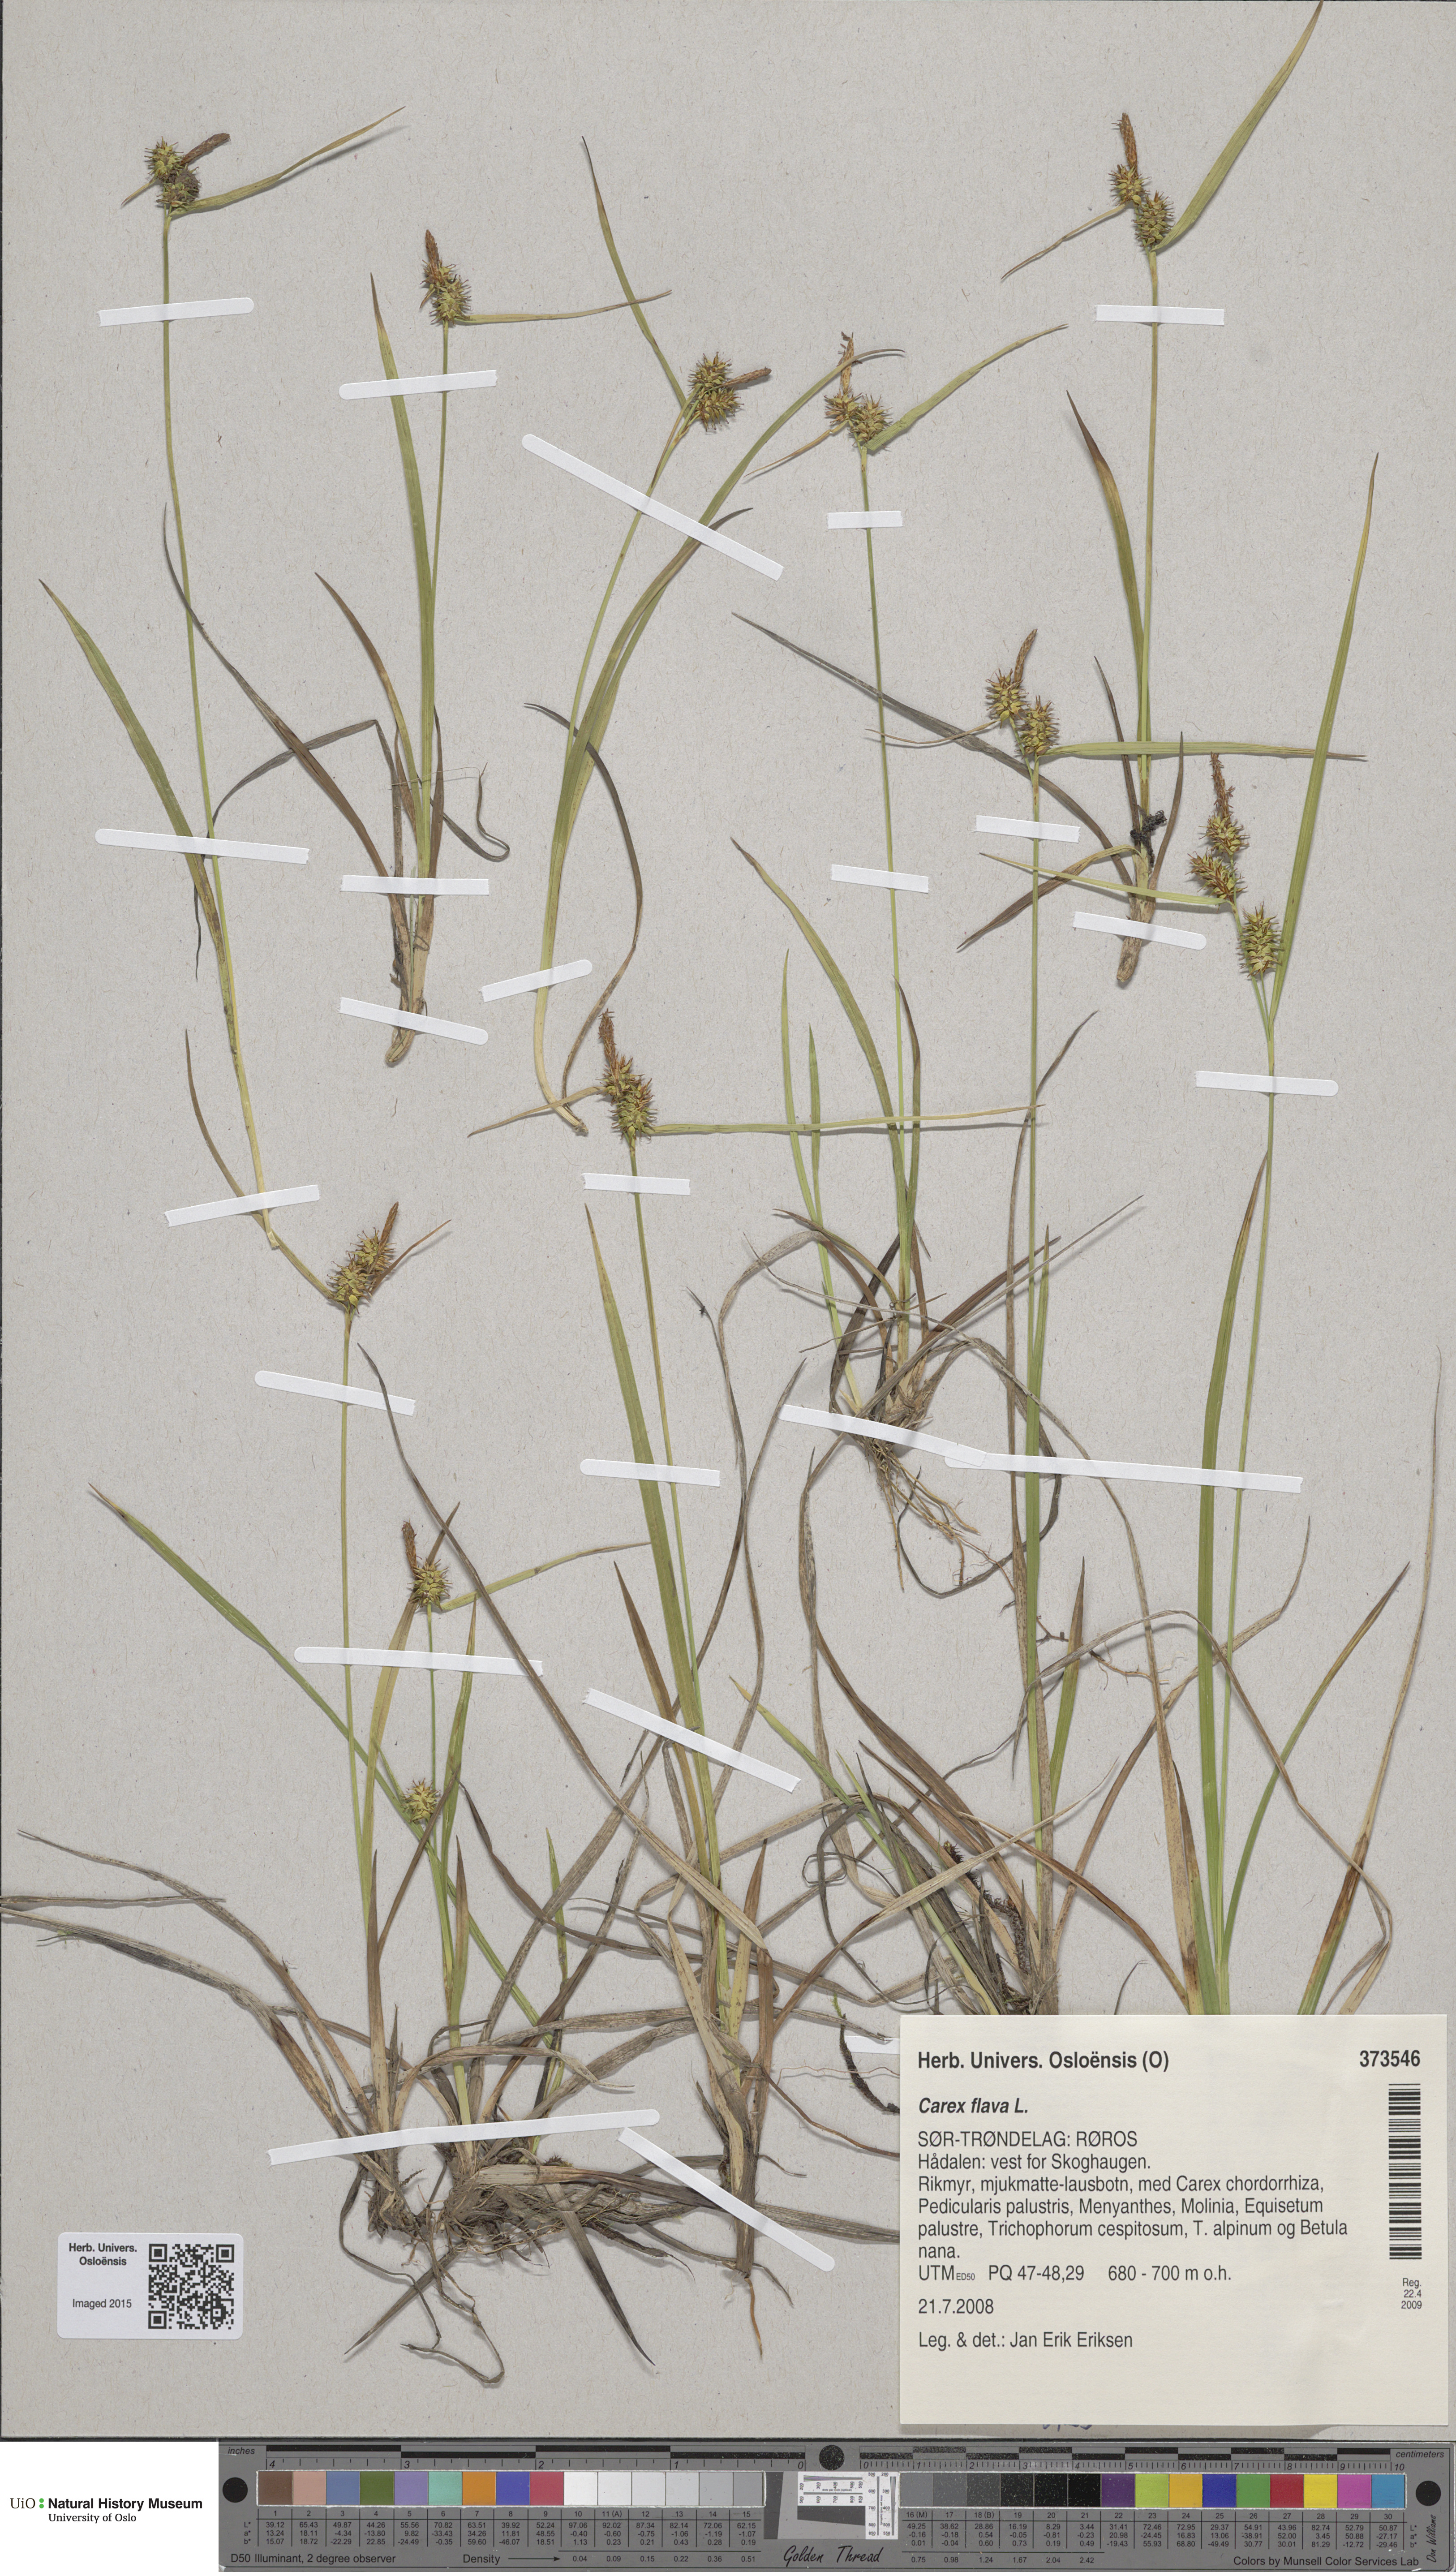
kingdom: Plantae
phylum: Tracheophyta
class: Liliopsida
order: Poales
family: Cyperaceae
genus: Carex
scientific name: Carex flava
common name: Large yellow-sedge
